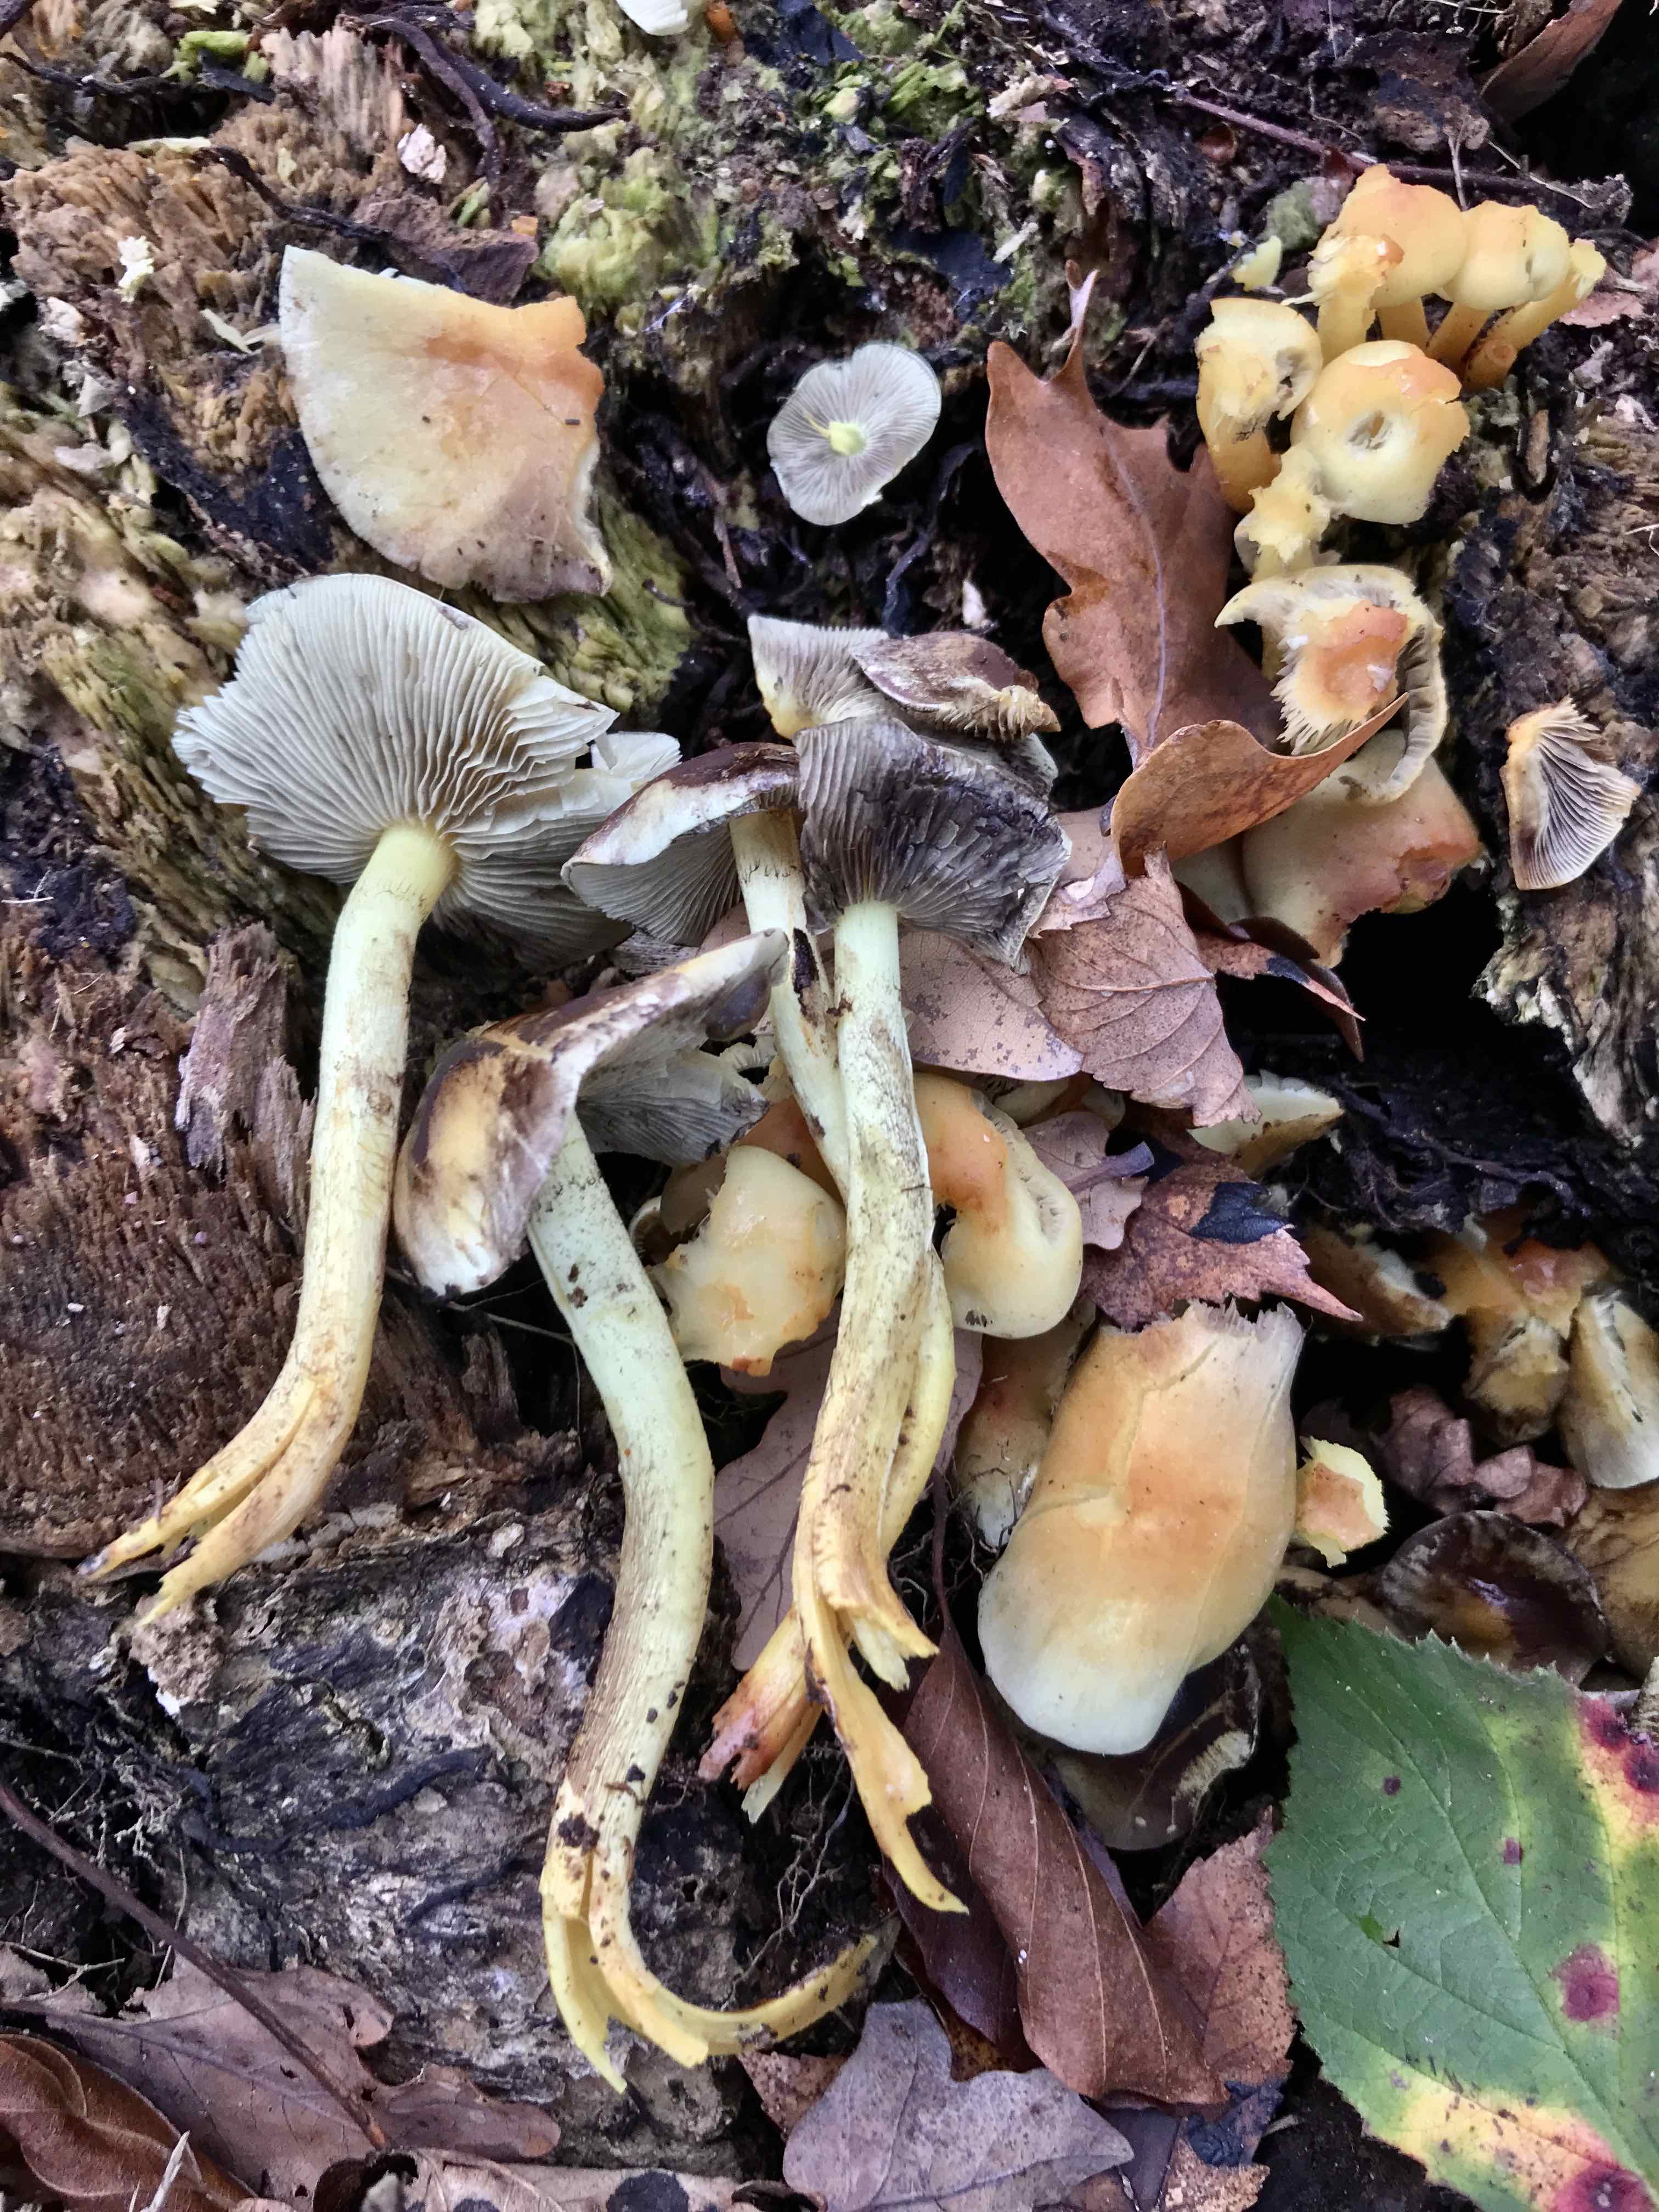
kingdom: Fungi
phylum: Basidiomycota
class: Agaricomycetes
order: Agaricales
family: Strophariaceae
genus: Hypholoma
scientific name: Hypholoma fasciculare
